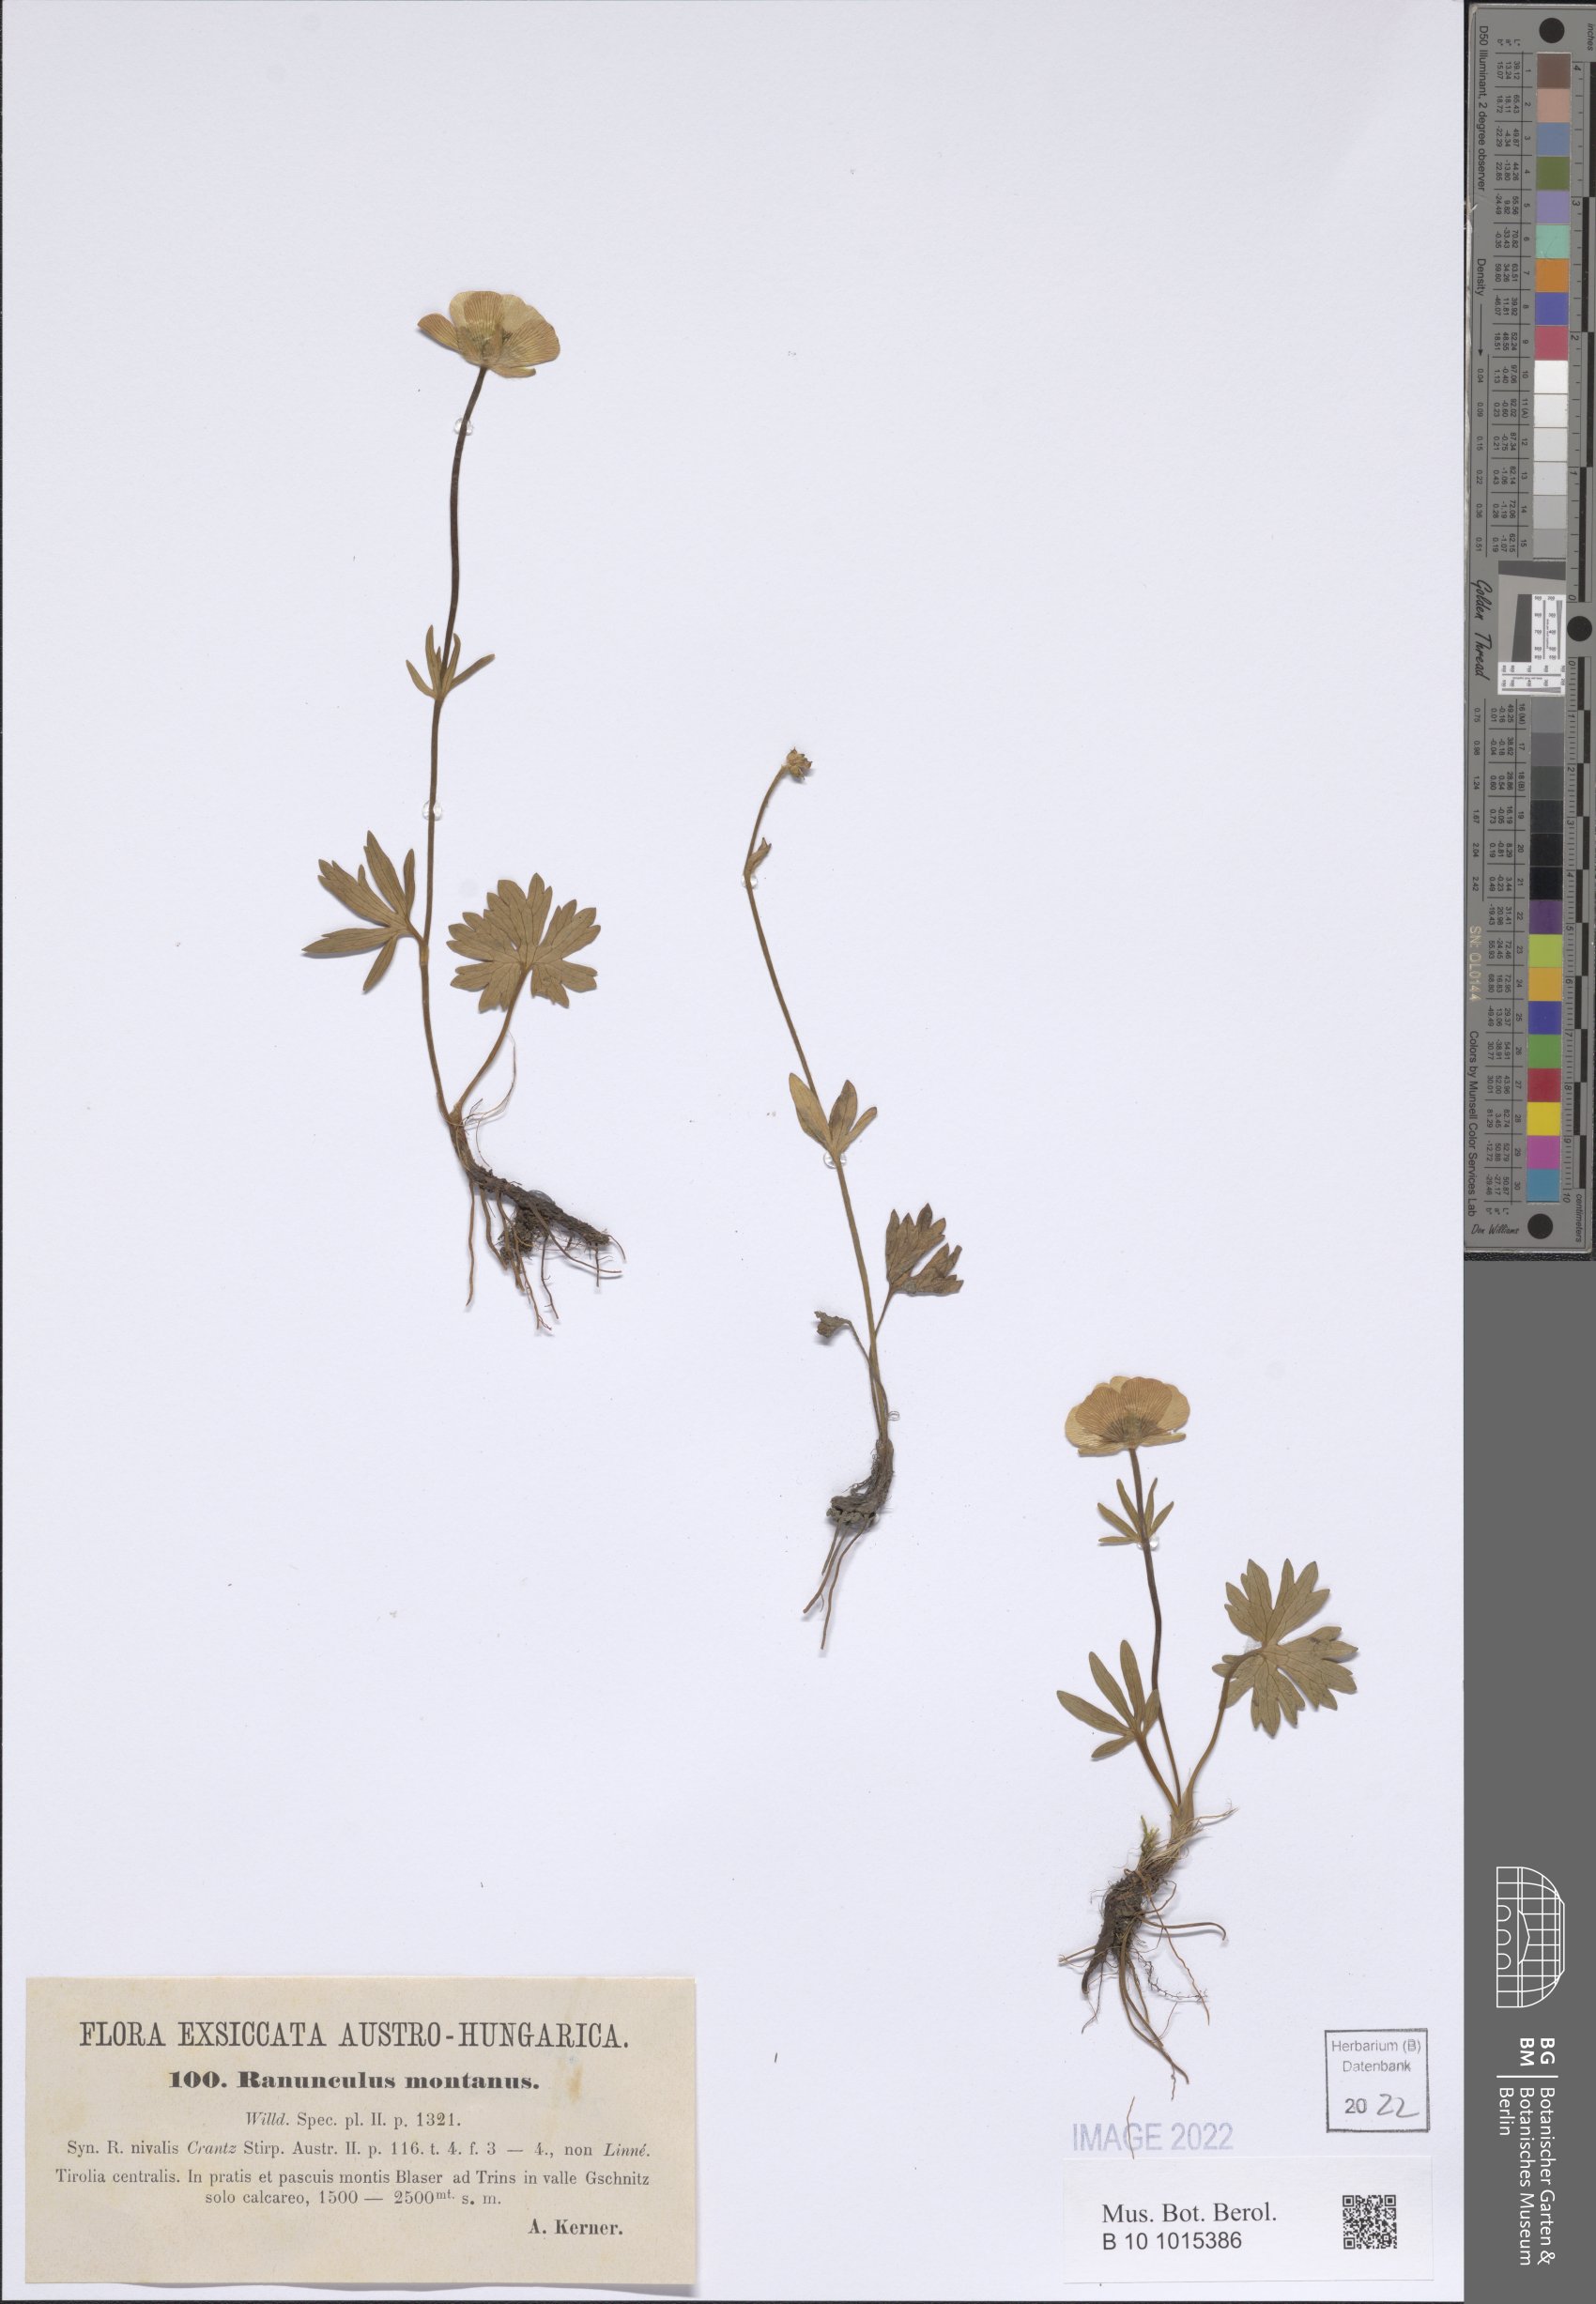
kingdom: Plantae
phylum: Tracheophyta
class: Magnoliopsida
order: Ranunculales
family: Ranunculaceae
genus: Ranunculus
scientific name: Ranunculus montanus
